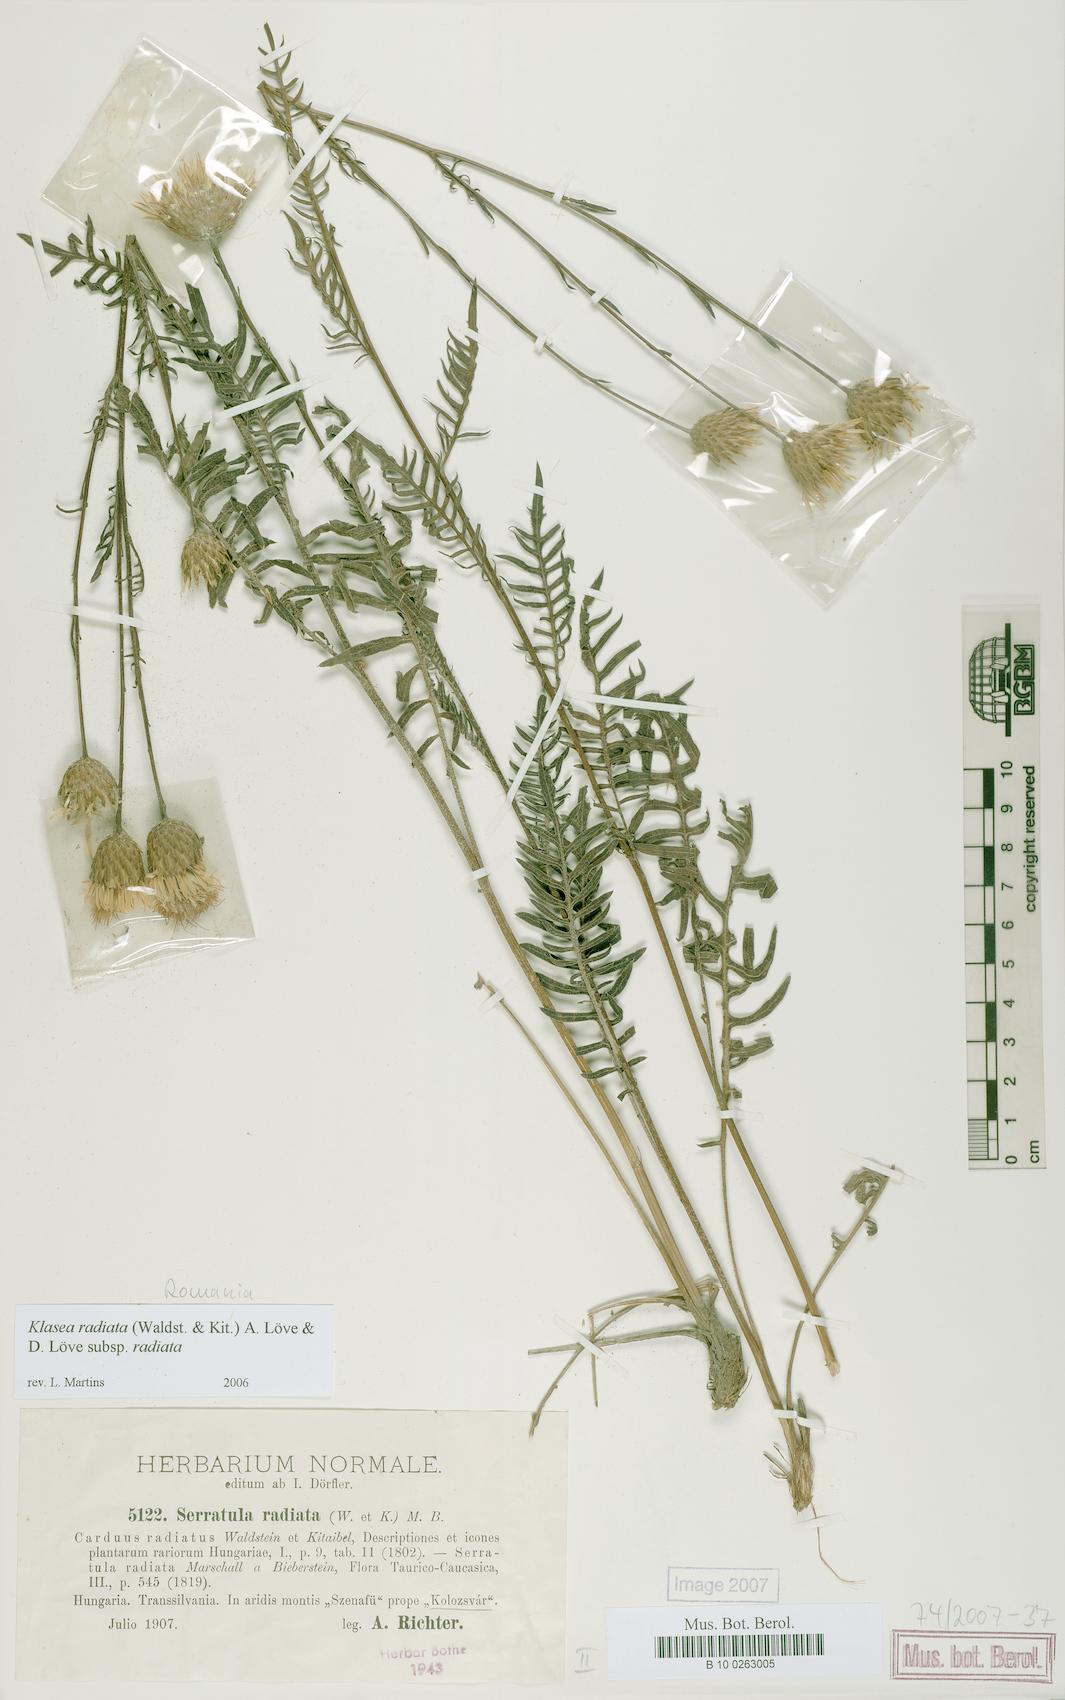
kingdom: Plantae
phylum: Tracheophyta
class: Magnoliopsida
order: Asterales
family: Asteraceae
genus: Klasea
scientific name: Klasea radiata
